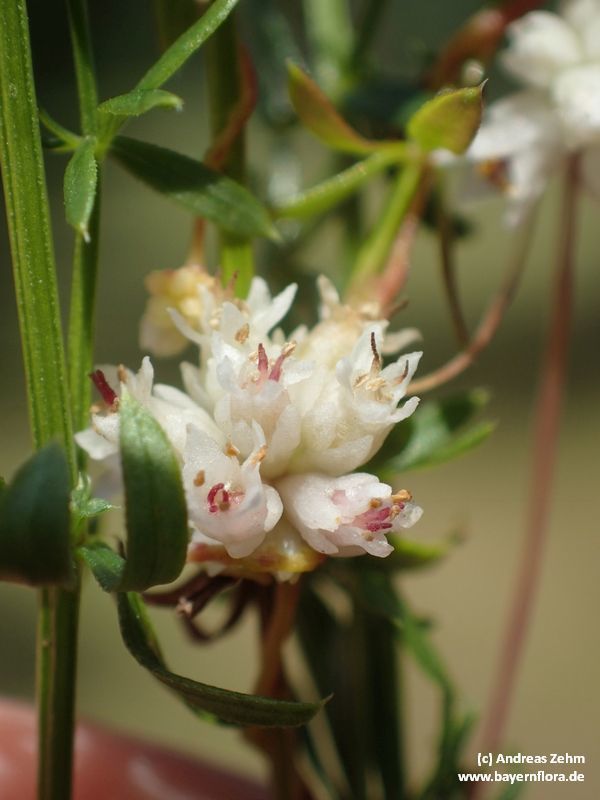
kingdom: Plantae
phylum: Tracheophyta
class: Magnoliopsida
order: Solanales
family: Convolvulaceae
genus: Cuscuta
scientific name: Cuscuta epithymum
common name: Clover dodder
